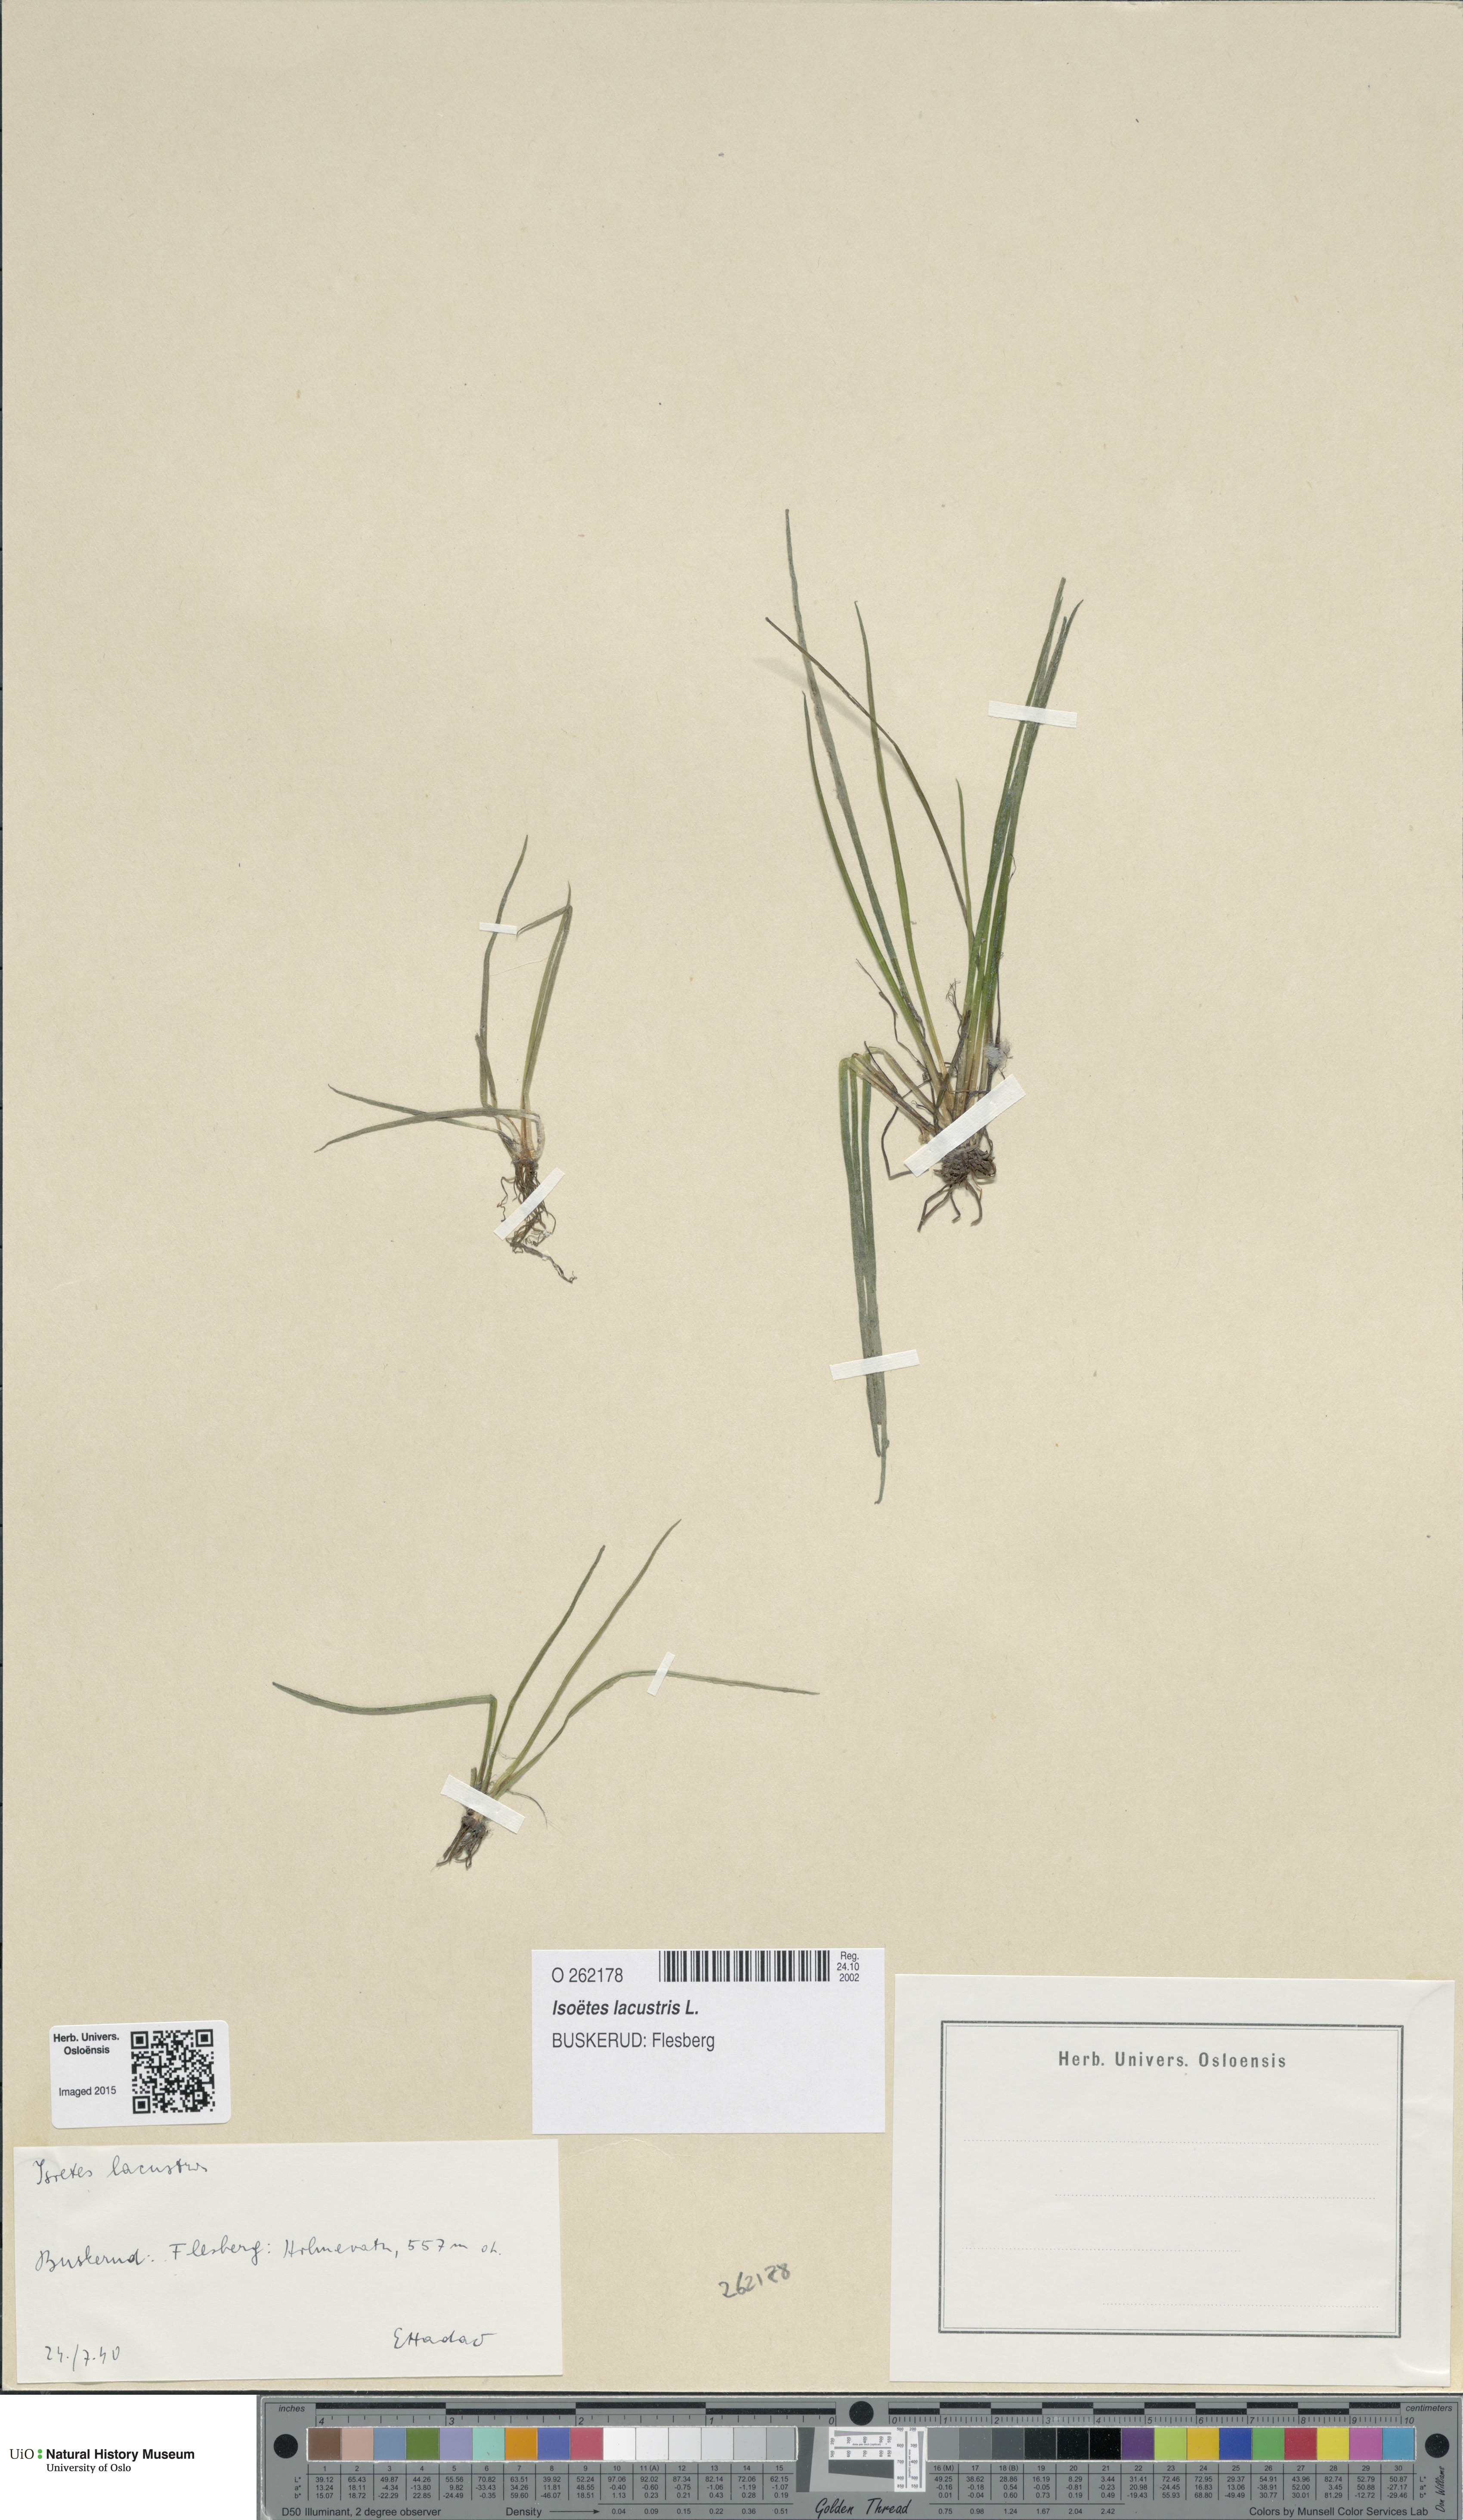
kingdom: Plantae
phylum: Tracheophyta
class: Lycopodiopsida
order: Isoetales
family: Isoetaceae
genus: Isoetes
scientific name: Isoetes lacustris
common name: Common quillwort
